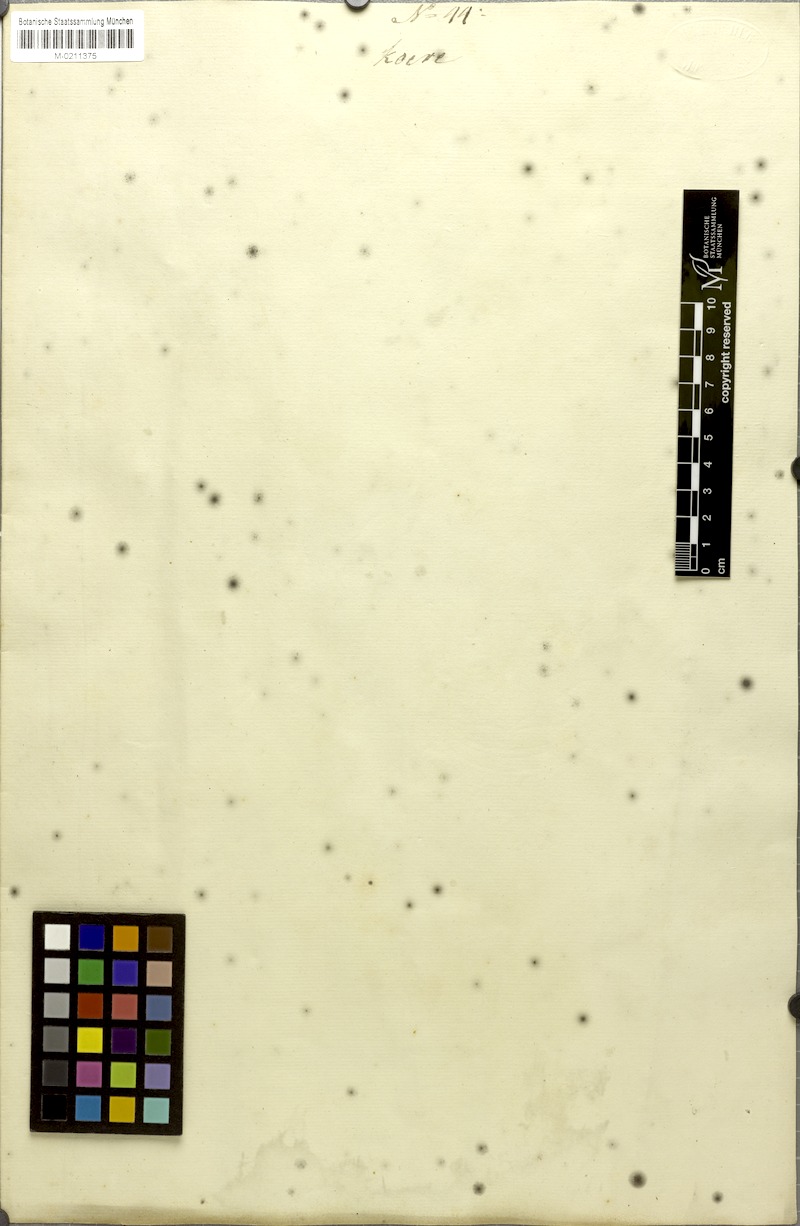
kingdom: Plantae
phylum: Tracheophyta
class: Magnoliopsida
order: Malvales
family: Malvaceae
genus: Urena
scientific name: Urena procumbens
